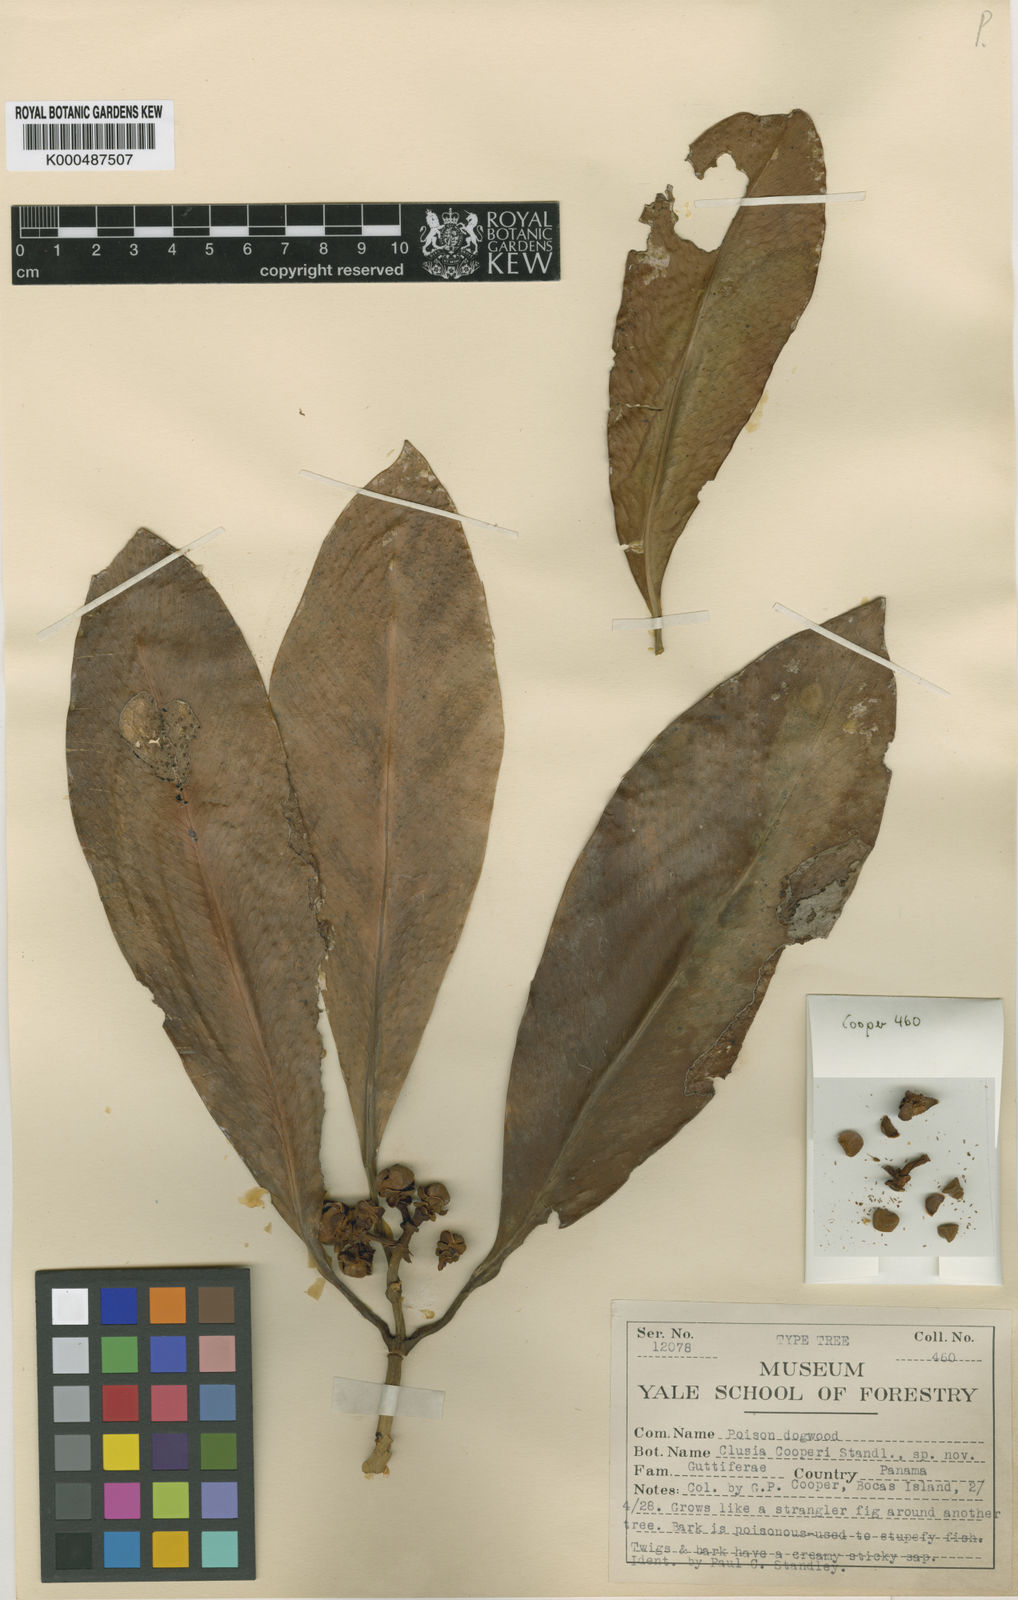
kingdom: Plantae
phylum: Tracheophyta
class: Magnoliopsida
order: Malpighiales
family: Clusiaceae
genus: Clusia
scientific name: Clusia cooperi
